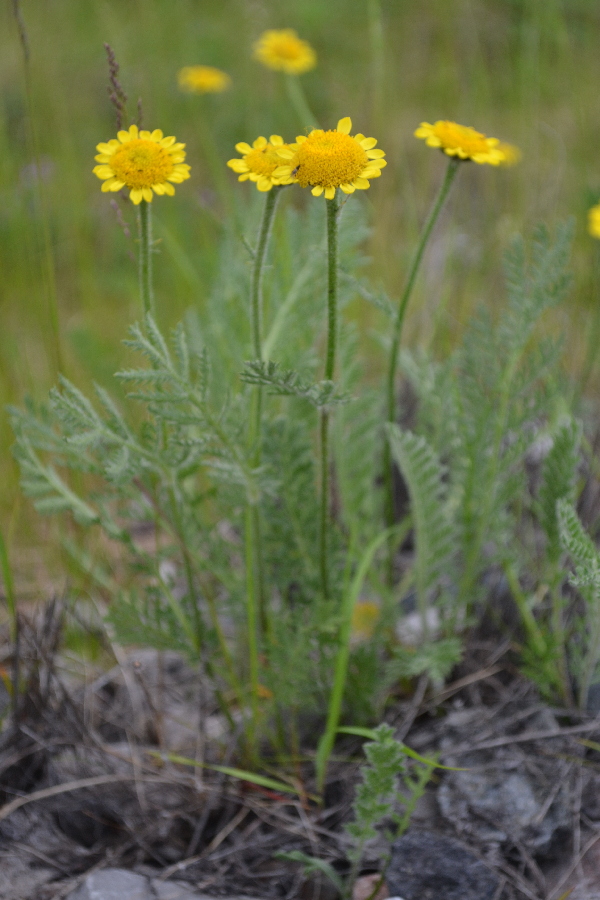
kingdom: Plantae
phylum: Tracheophyta
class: Magnoliopsida
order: Asterales
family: Asteraceae
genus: Tanacetum
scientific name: Tanacetum bipinnatum
